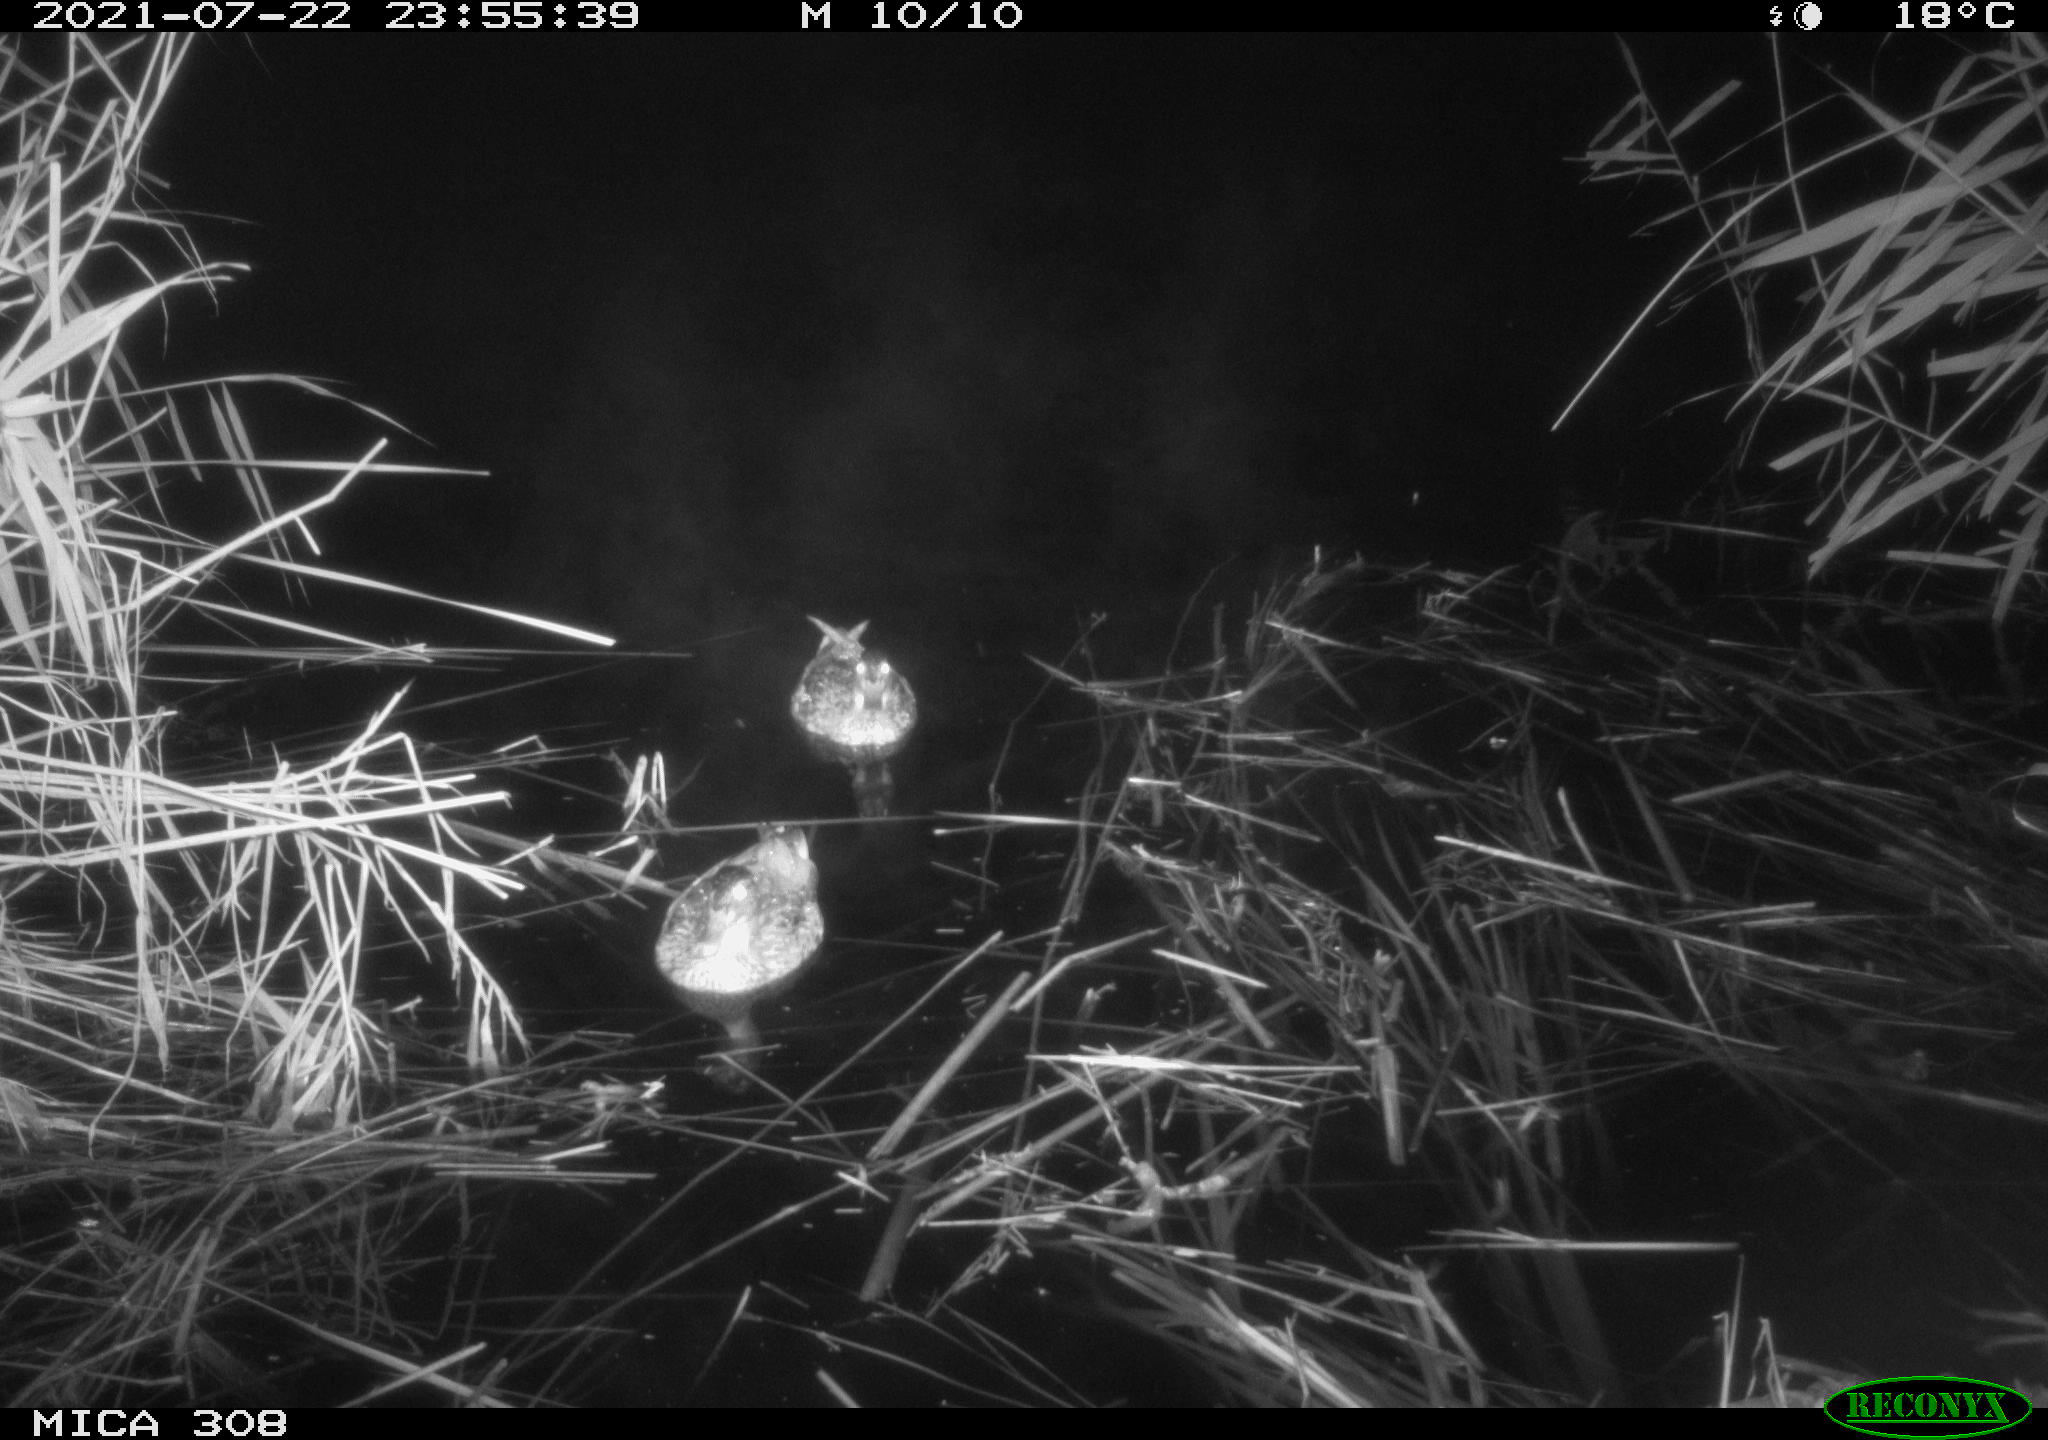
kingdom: Animalia
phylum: Chordata
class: Aves
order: Anseriformes
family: Anatidae
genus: Anas
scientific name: Anas platyrhynchos
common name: Mallard
